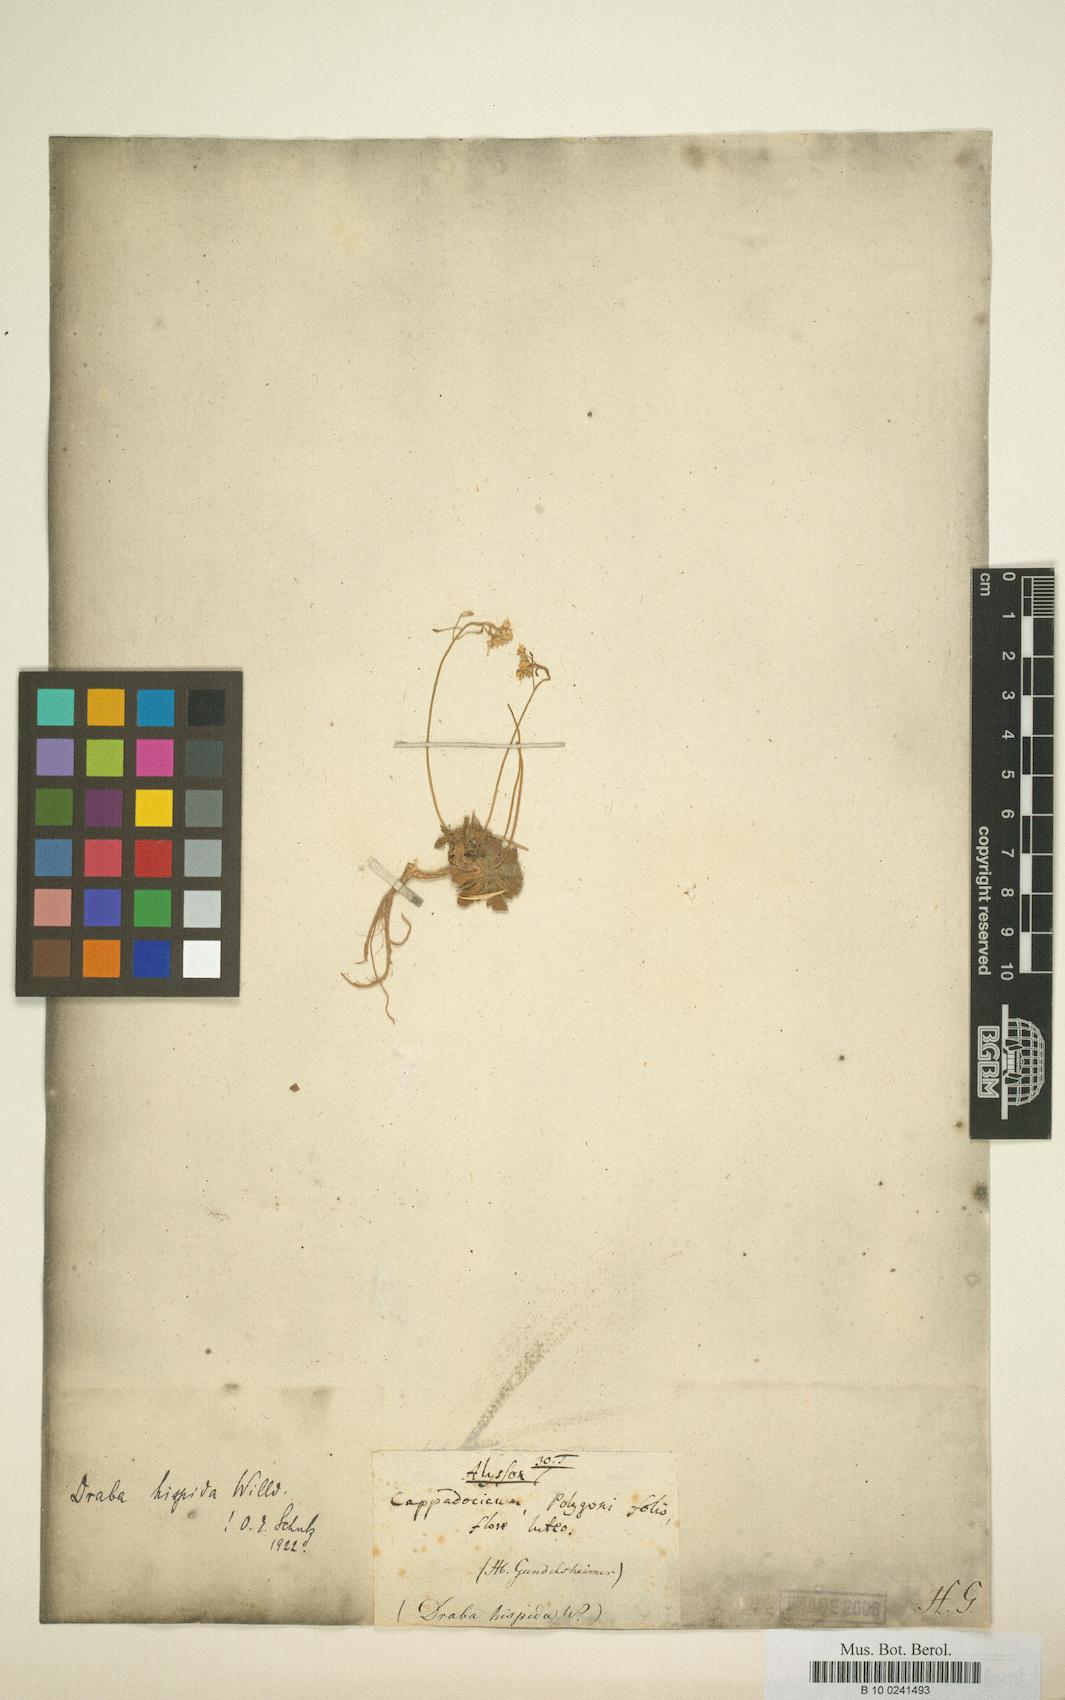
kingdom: Plantae
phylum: Tracheophyta
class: Magnoliopsida
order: Brassicales
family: Brassicaceae
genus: Draba
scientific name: Draba hispida
